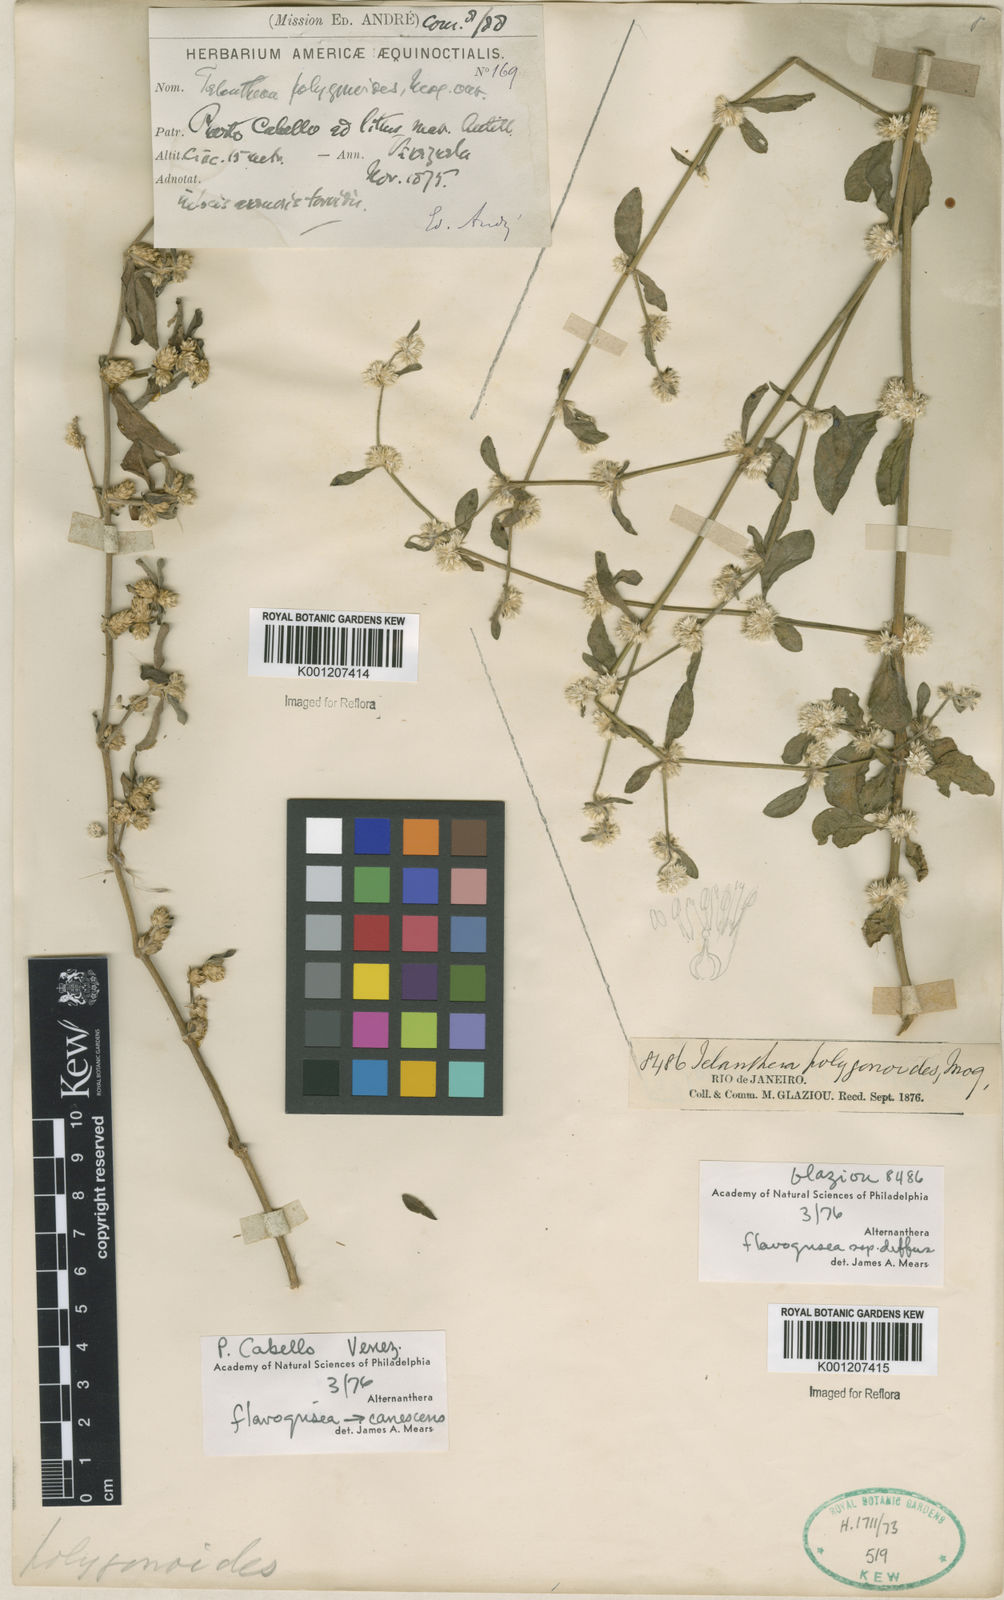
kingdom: Plantae
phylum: Tracheophyta
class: Magnoliopsida
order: Caryophyllales
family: Amaranthaceae
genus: Alternanthera
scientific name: Alternanthera halimifolia
